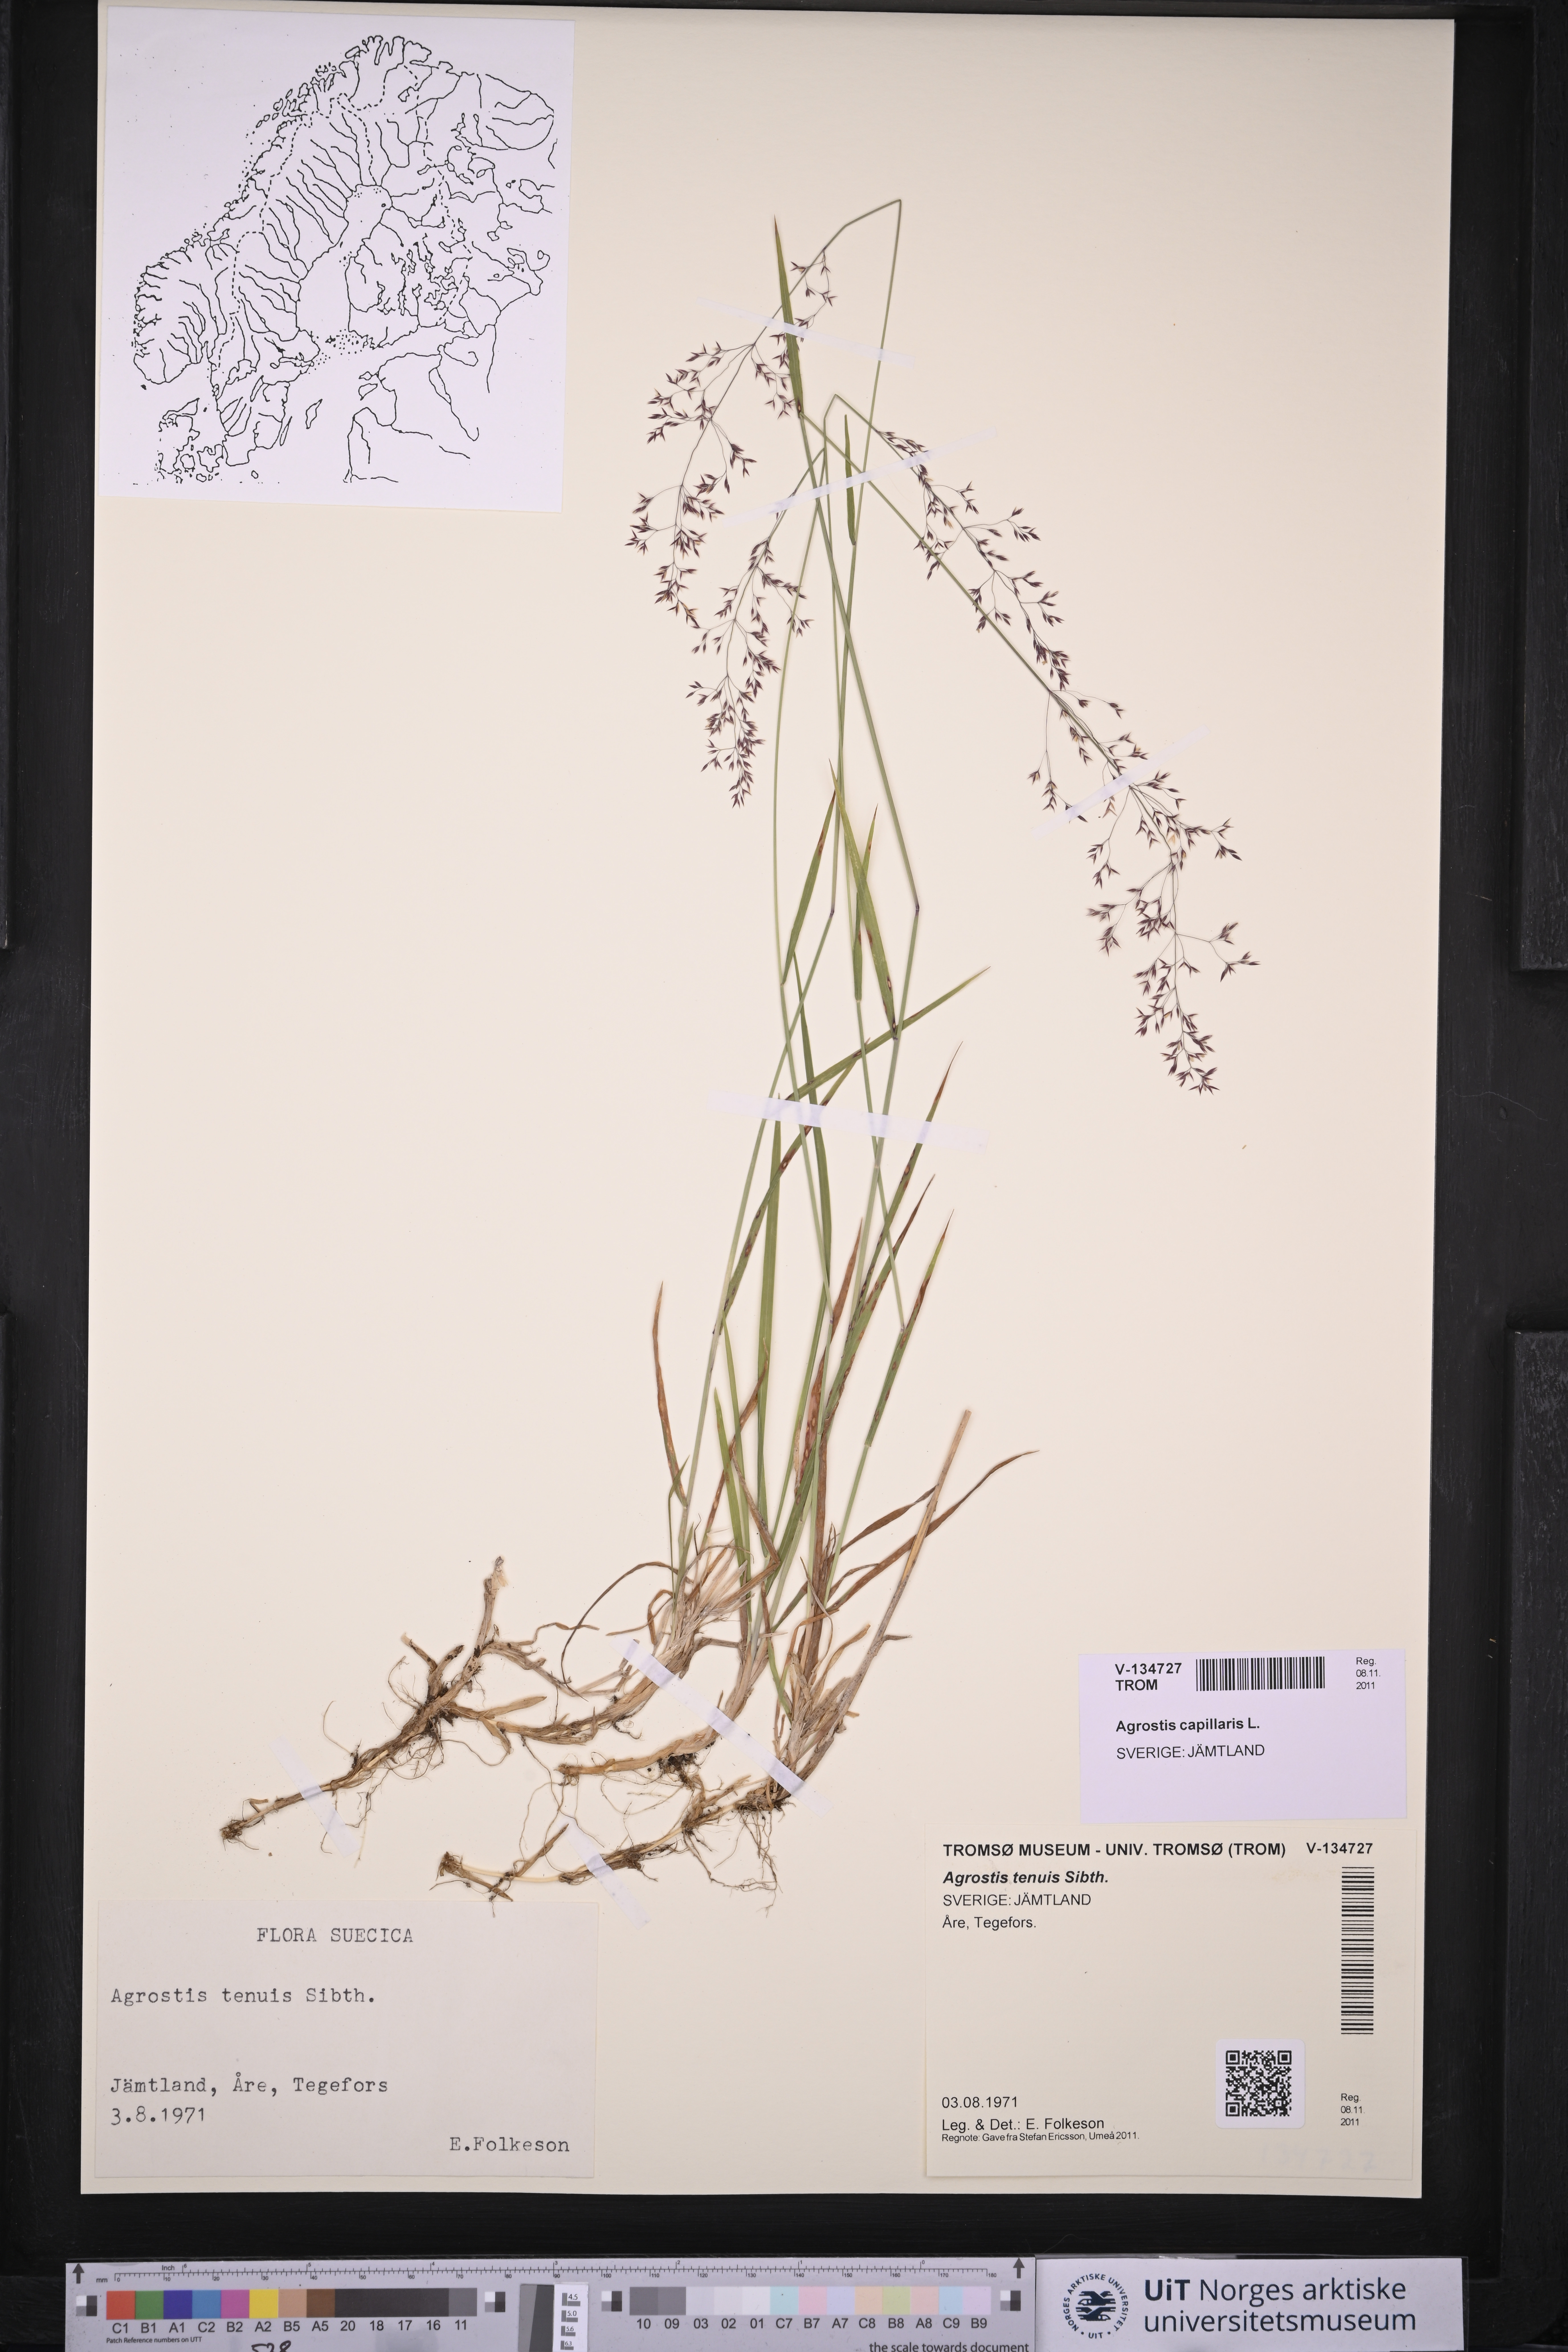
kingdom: Plantae
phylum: Tracheophyta
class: Liliopsida
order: Poales
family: Poaceae
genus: Agrostis
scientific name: Agrostis capillaris
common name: Colonial bentgrass
